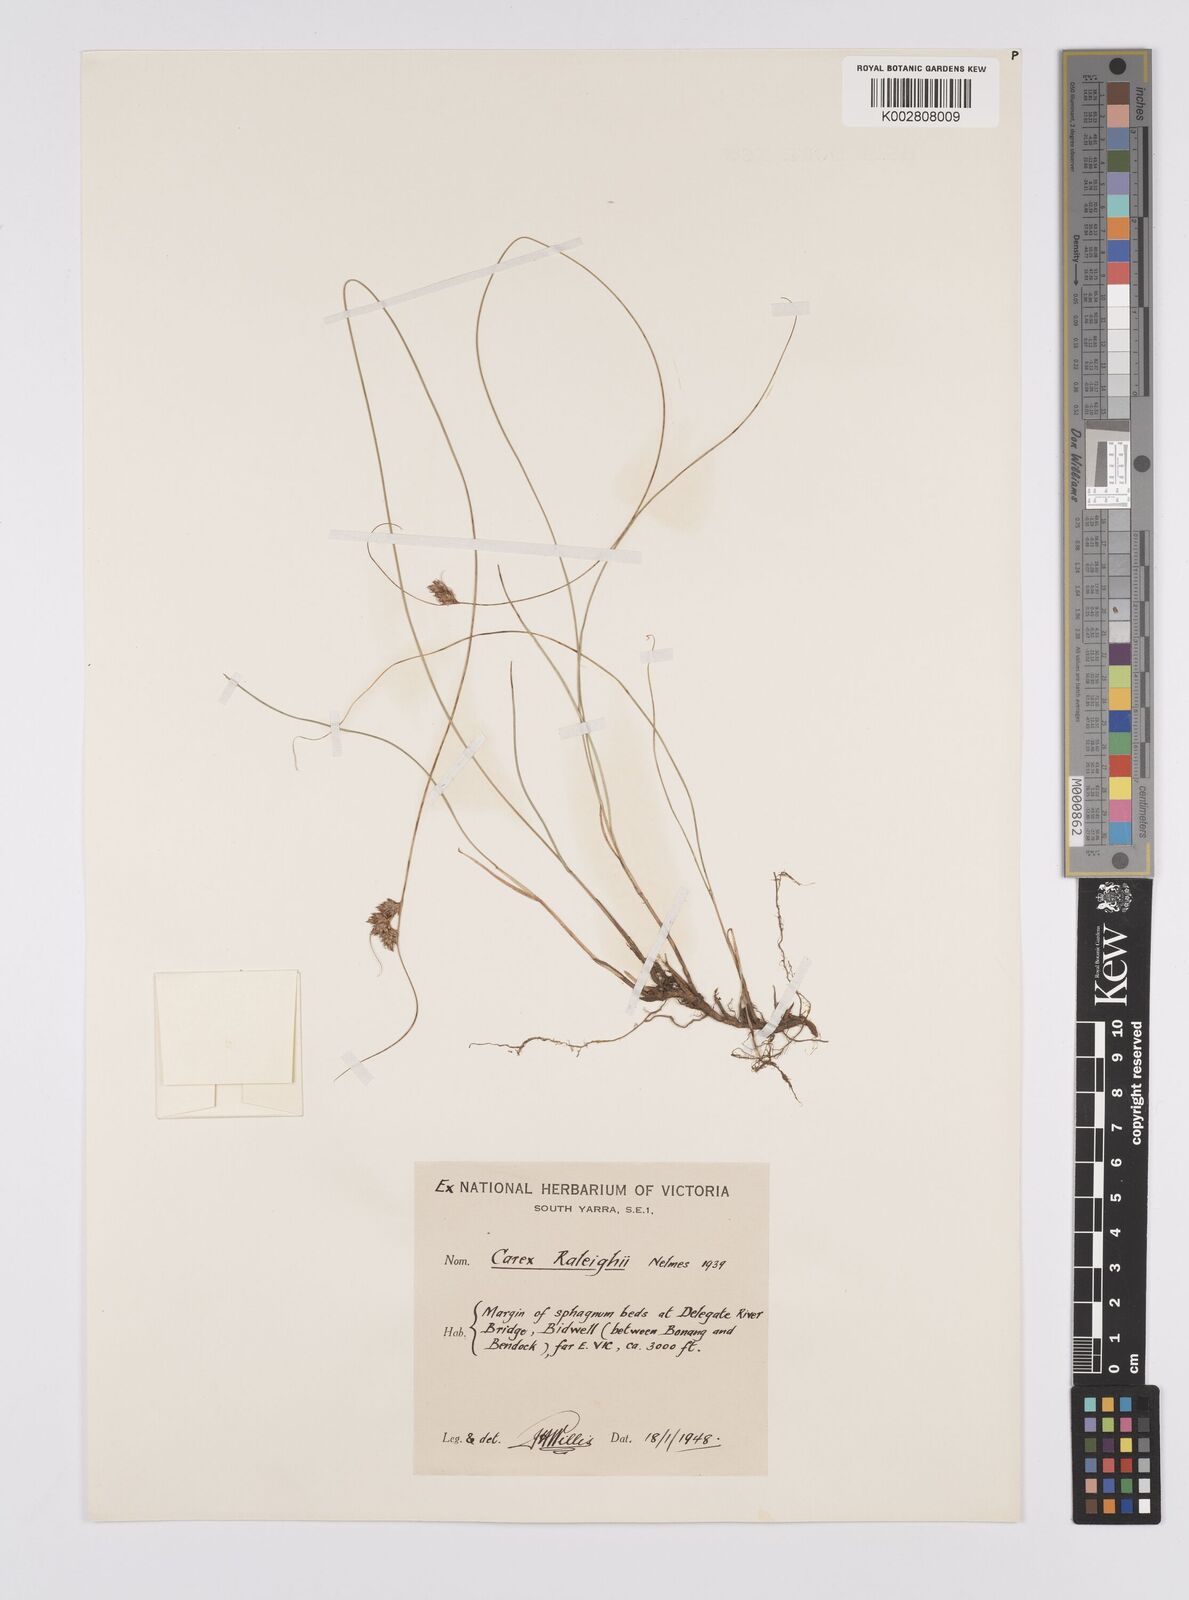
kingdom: Plantae
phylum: Tracheophyta
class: Liliopsida
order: Poales
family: Cyperaceae
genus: Carex
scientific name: Carex raleighii
